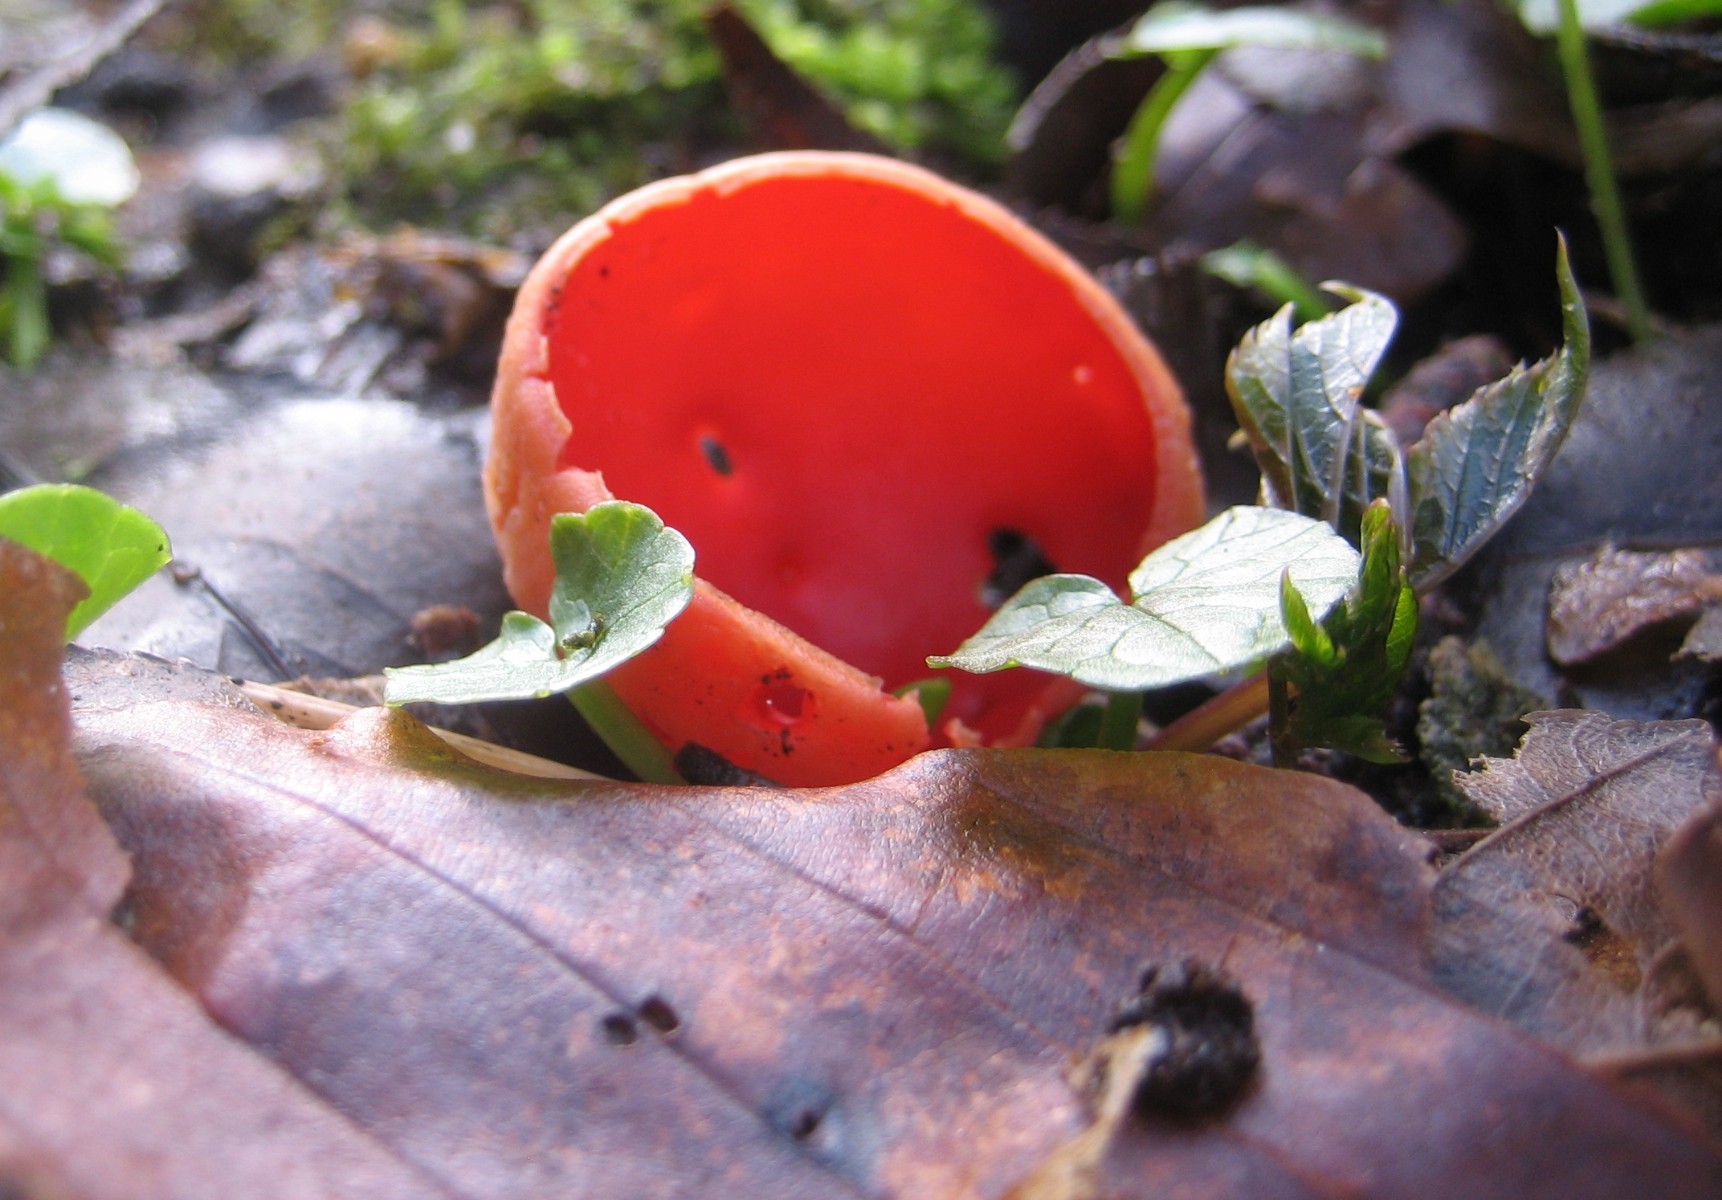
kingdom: Fungi
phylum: Ascomycota
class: Pezizomycetes
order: Pezizales
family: Sarcoscyphaceae
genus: Sarcoscypha
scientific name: Sarcoscypha austriaca
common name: krølhåret pragtbæger
